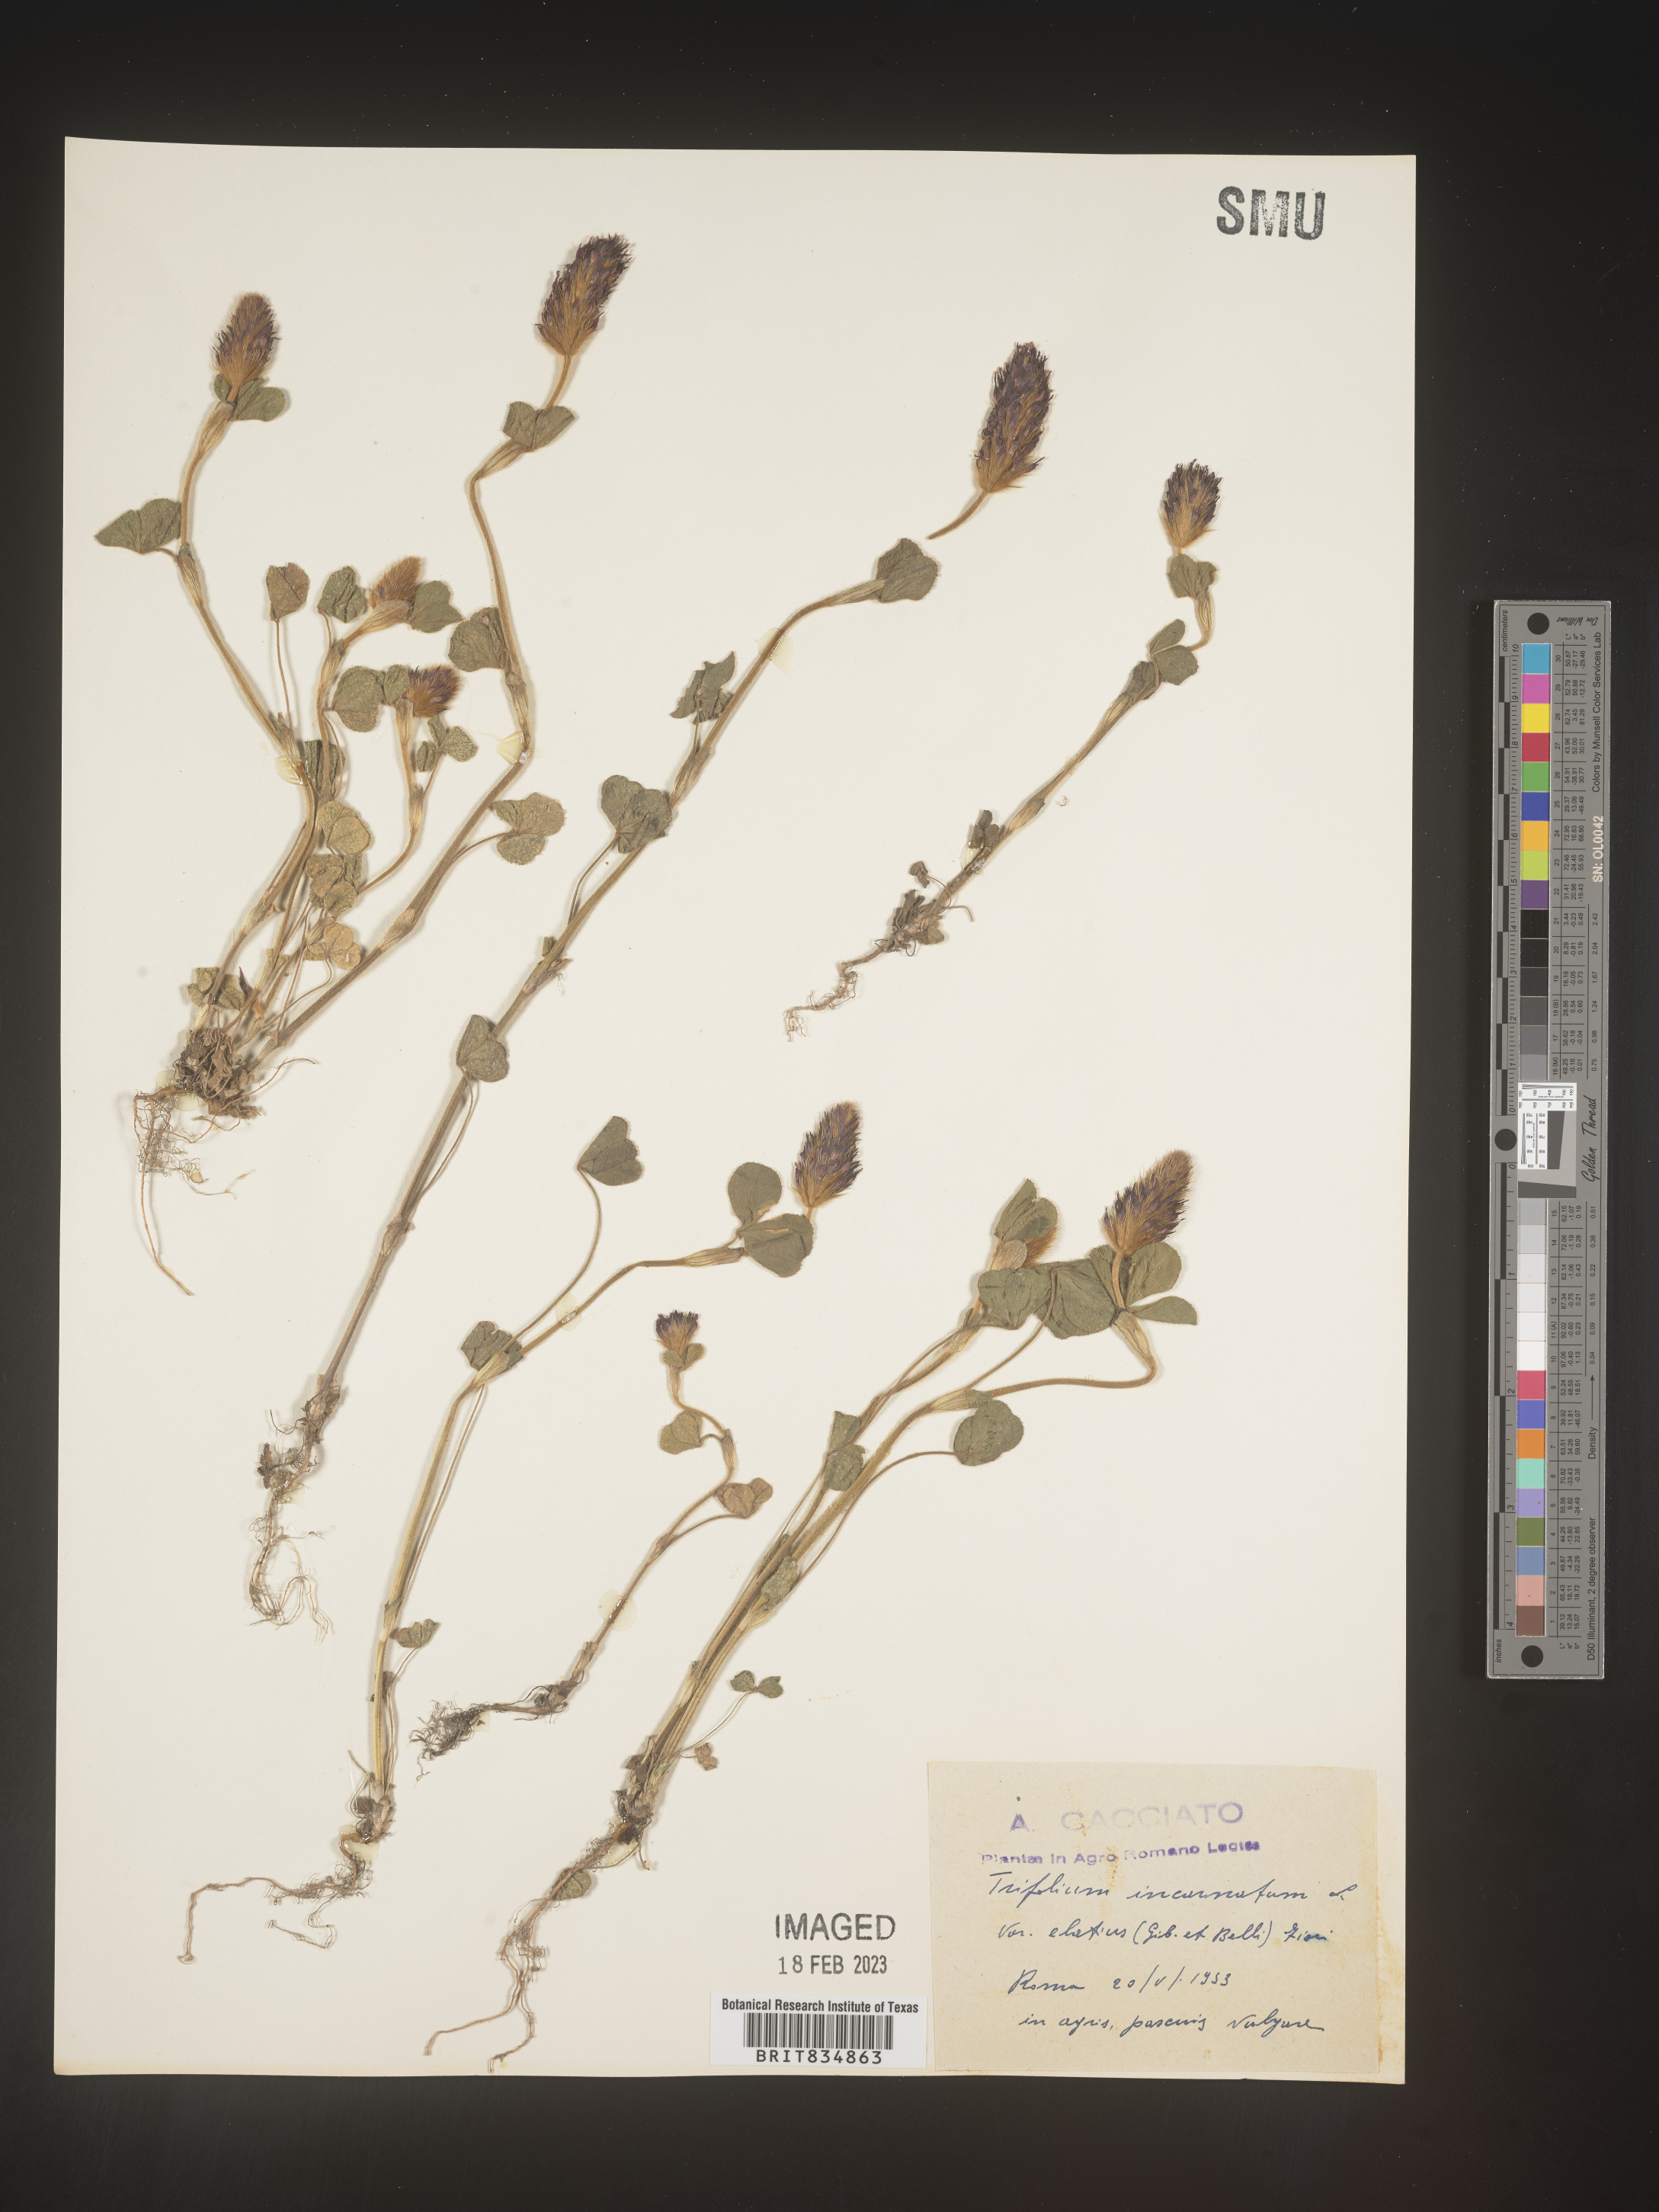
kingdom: Plantae
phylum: Tracheophyta
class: Magnoliopsida
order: Fabales
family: Fabaceae
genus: Trifolium
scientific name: Trifolium incarnatum
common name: Crimson clover
